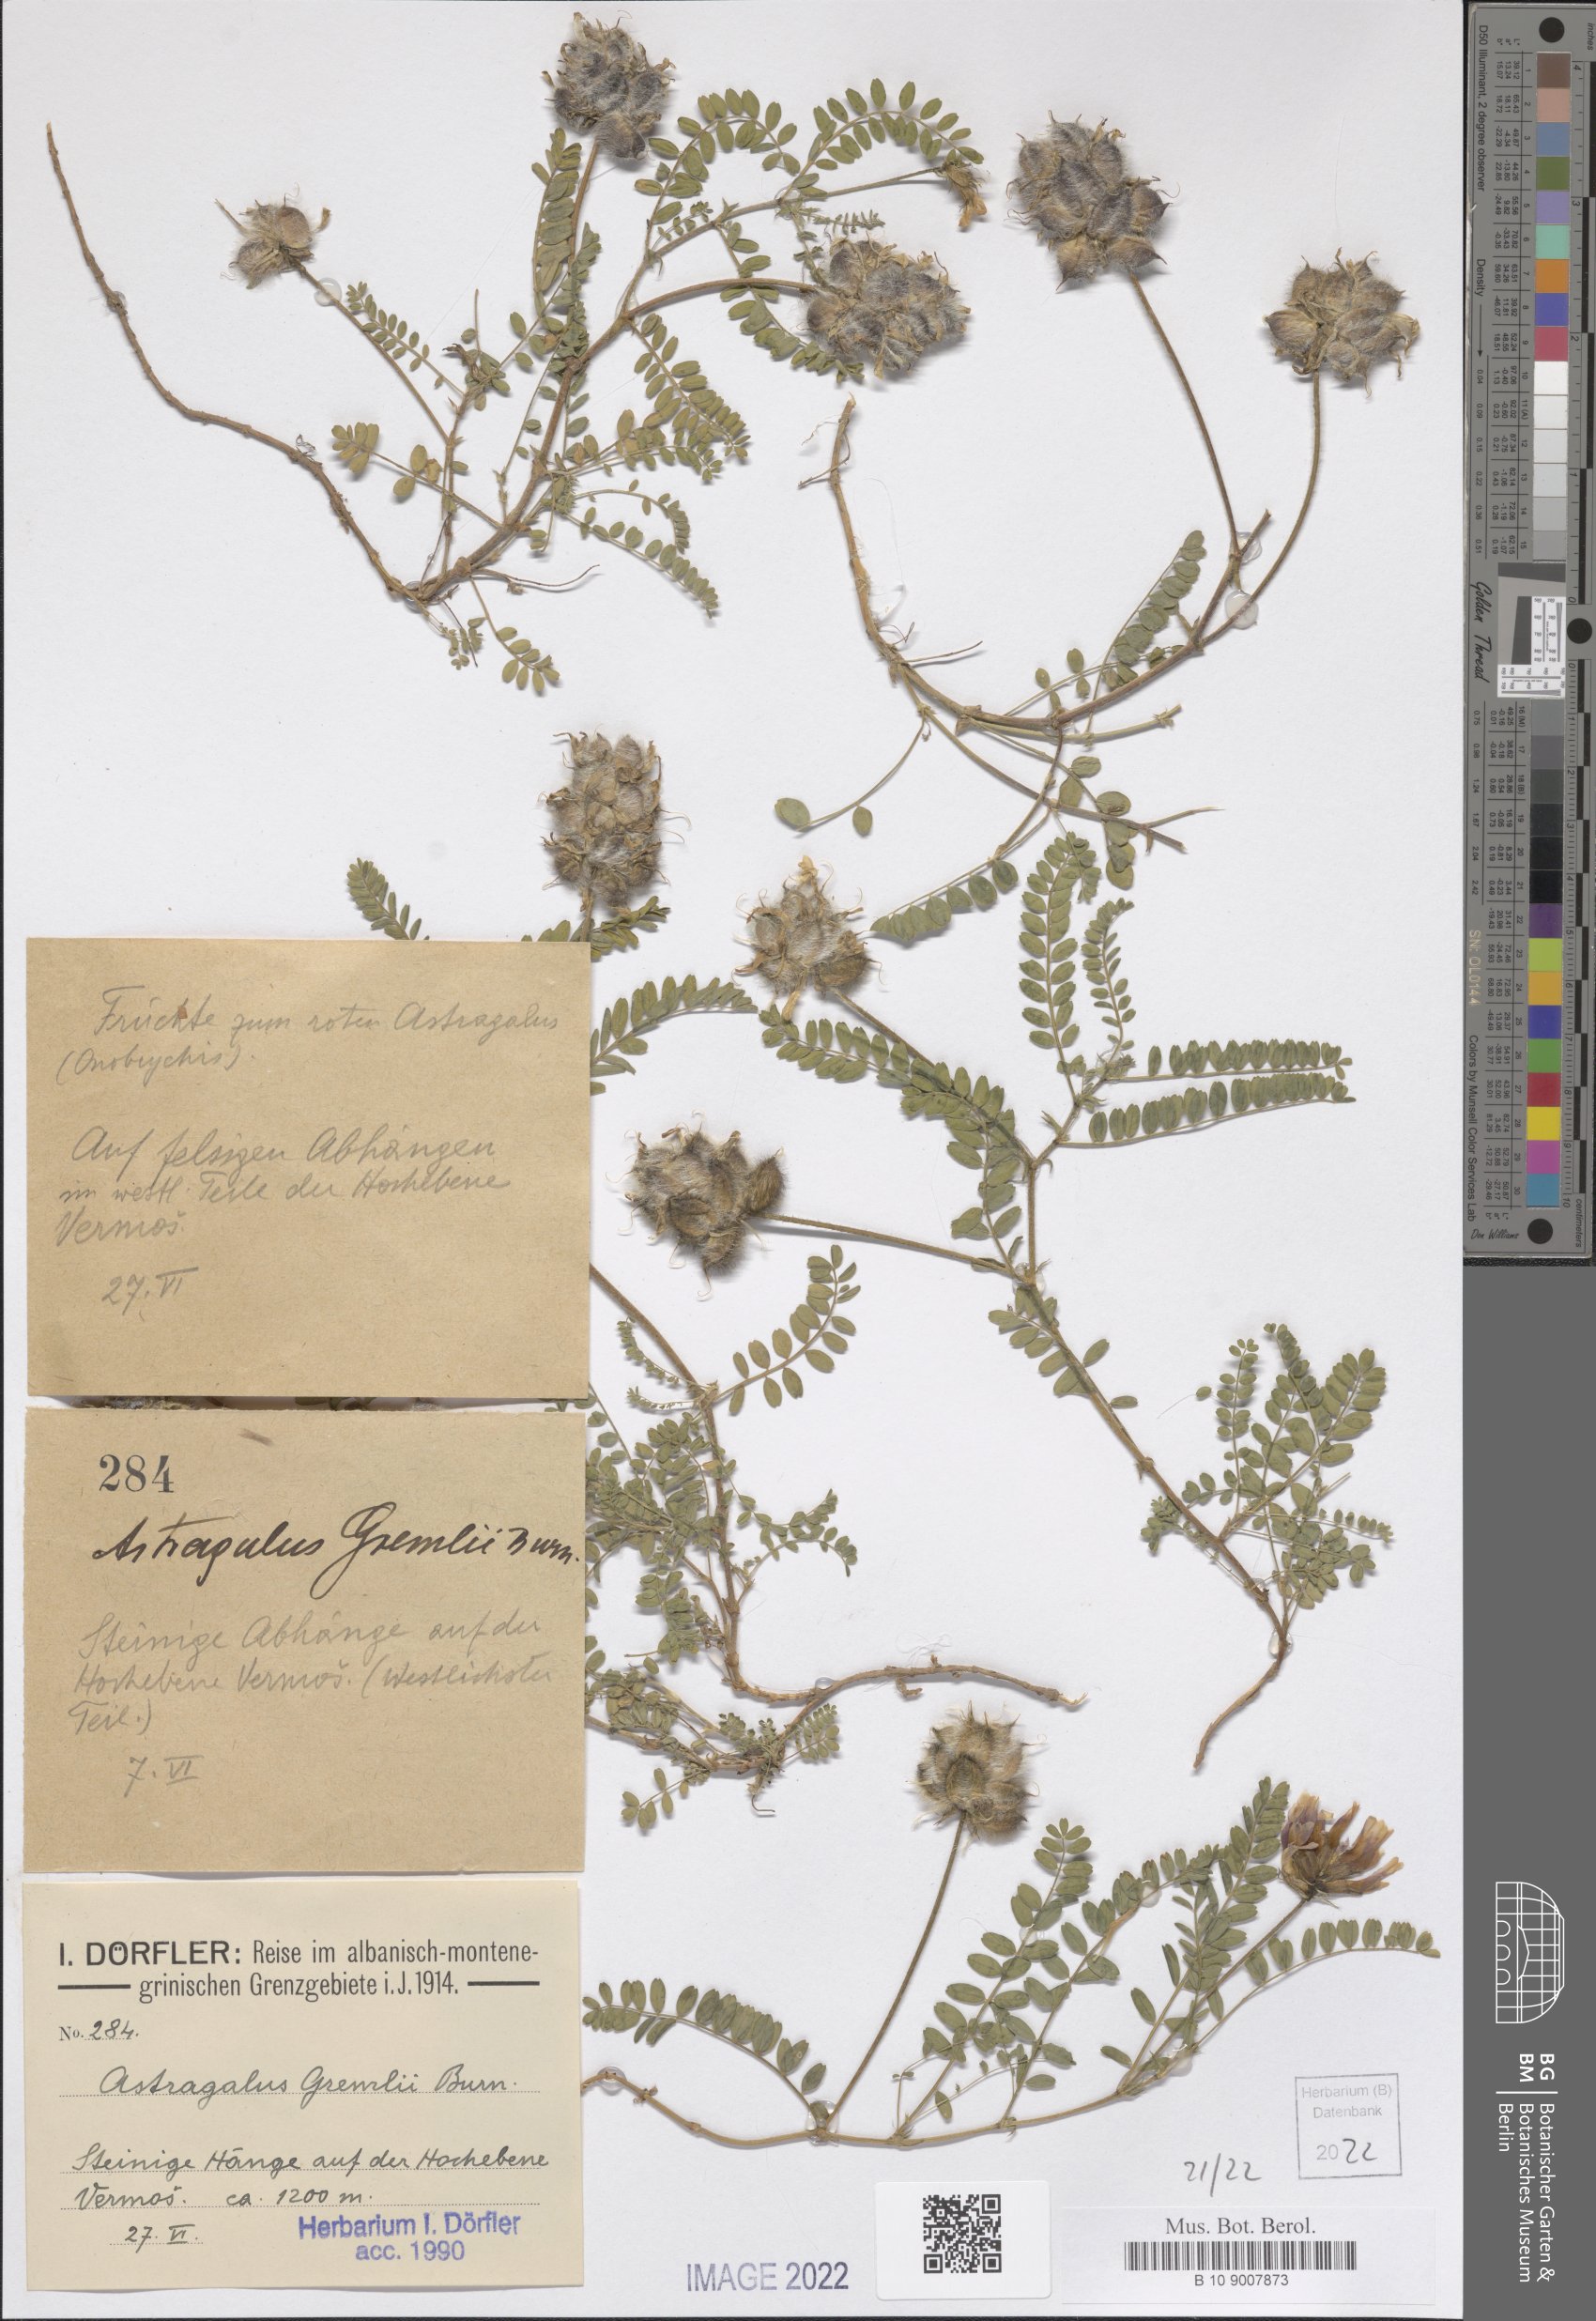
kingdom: Plantae
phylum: Tracheophyta
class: Magnoliopsida
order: Fabales
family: Fabaceae
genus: Astragalus
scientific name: Astragalus hypoglottis
